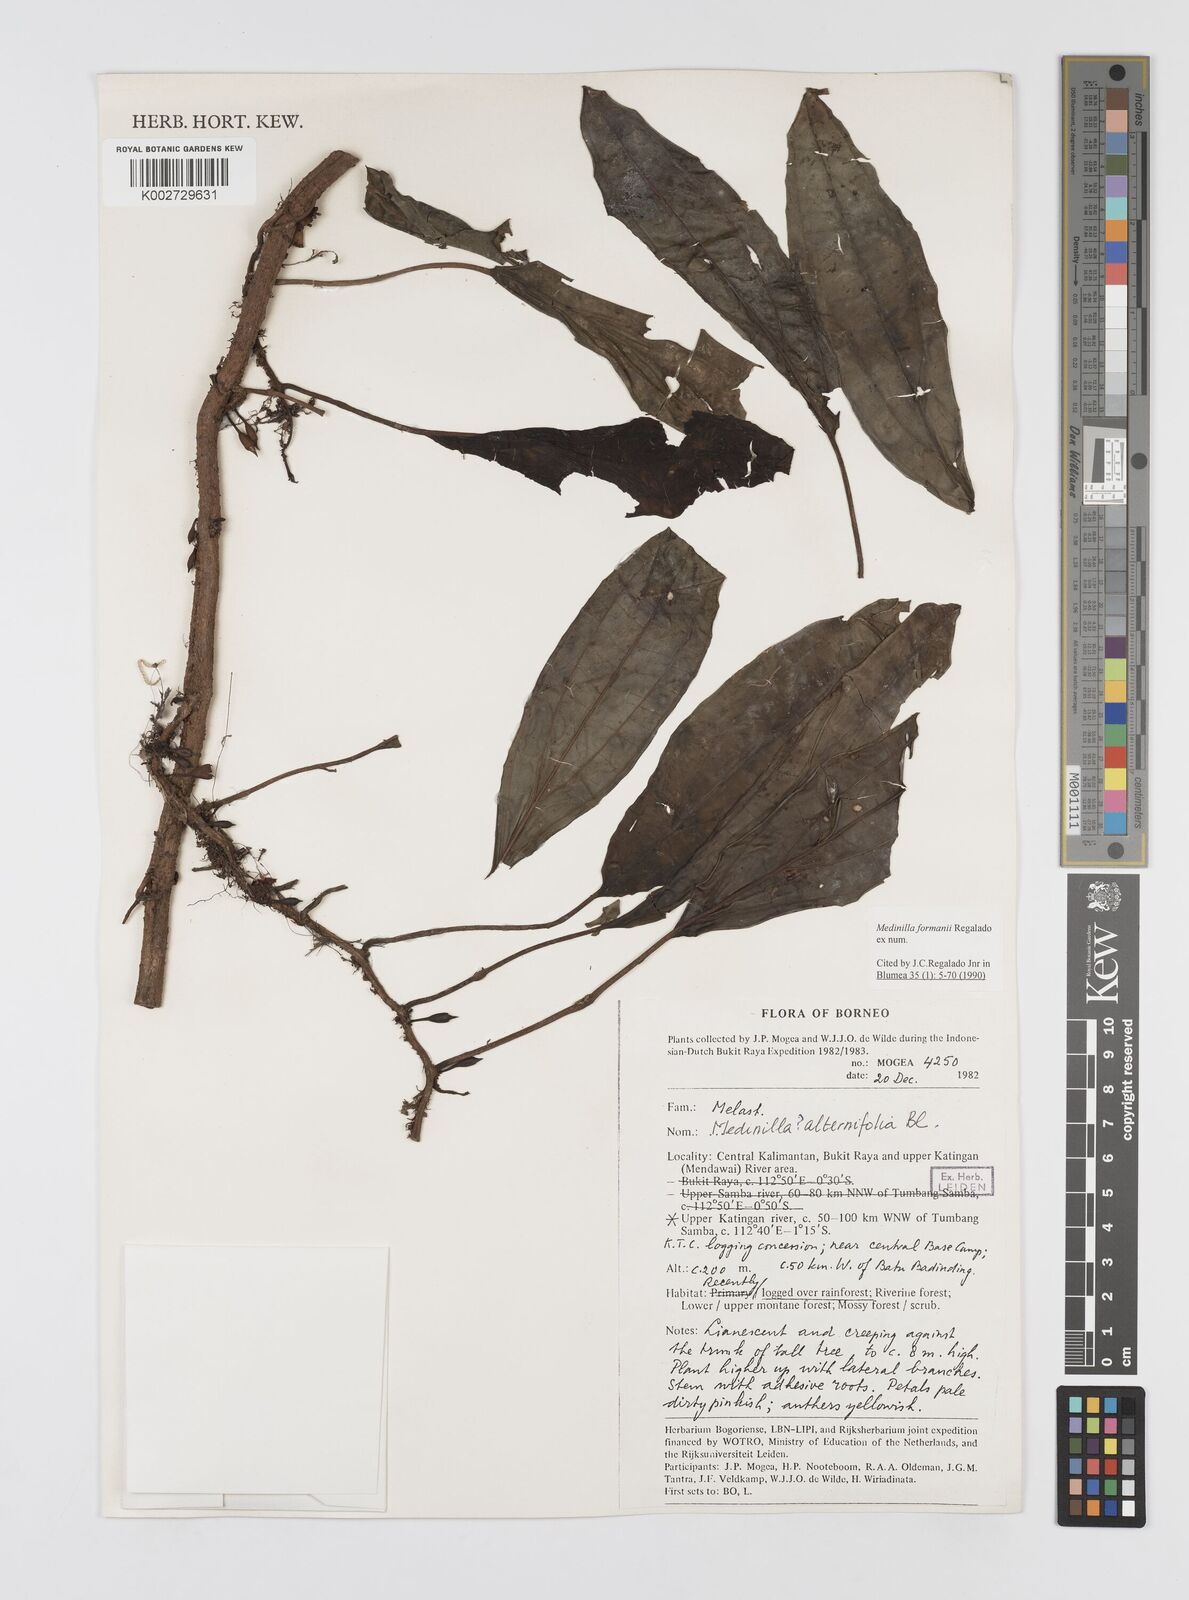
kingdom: Plantae
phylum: Tracheophyta
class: Magnoliopsida
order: Myrtales
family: Melastomataceae
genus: Heteroblemma
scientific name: Heteroblemma formanii
